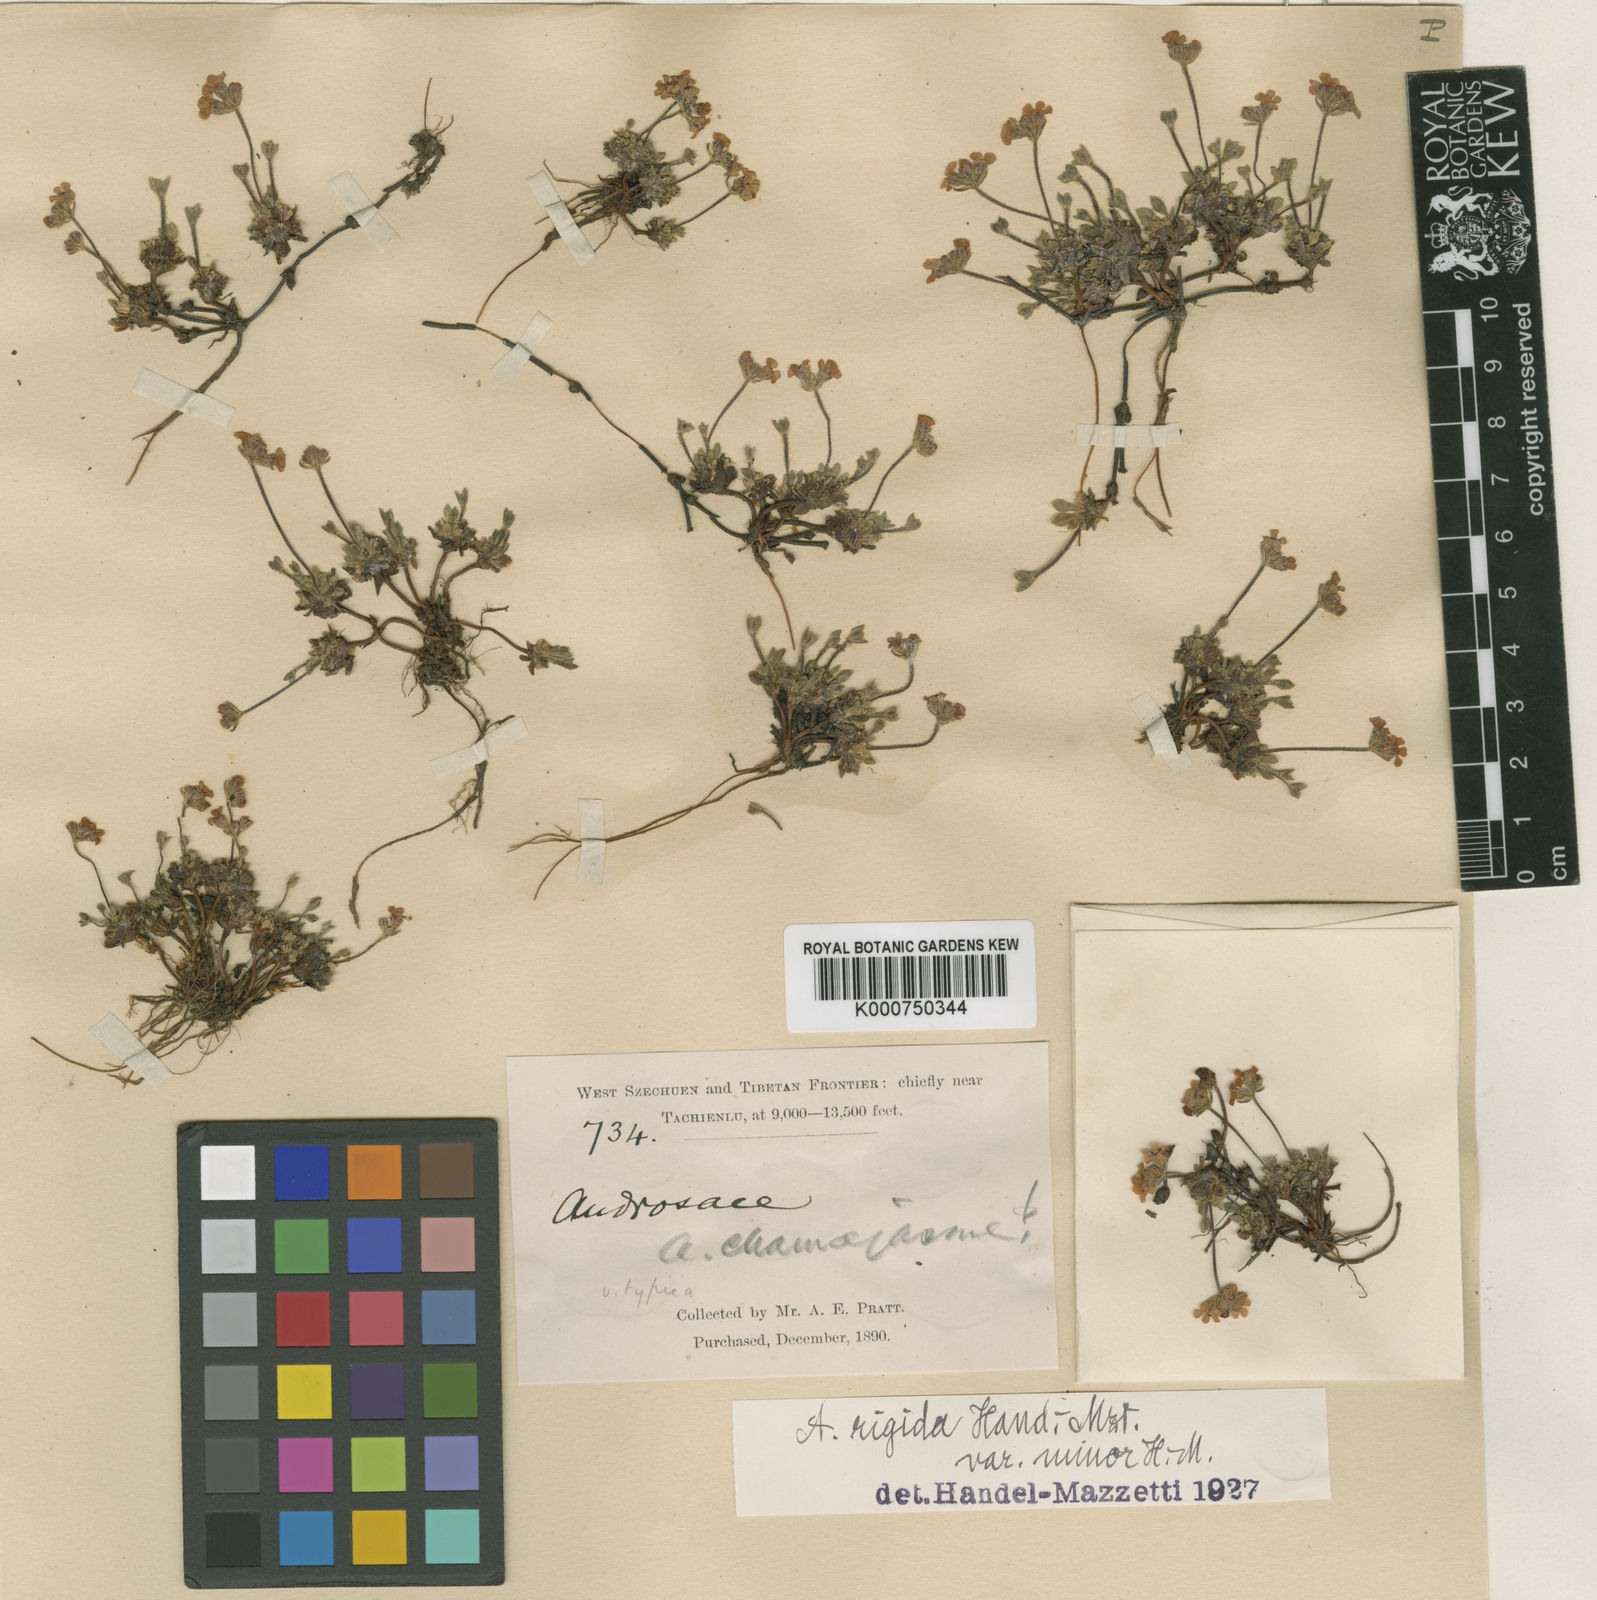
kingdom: Plantae
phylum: Tracheophyta
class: Magnoliopsida
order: Ericales
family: Primulaceae
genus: Androsace
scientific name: Androsace rigida
